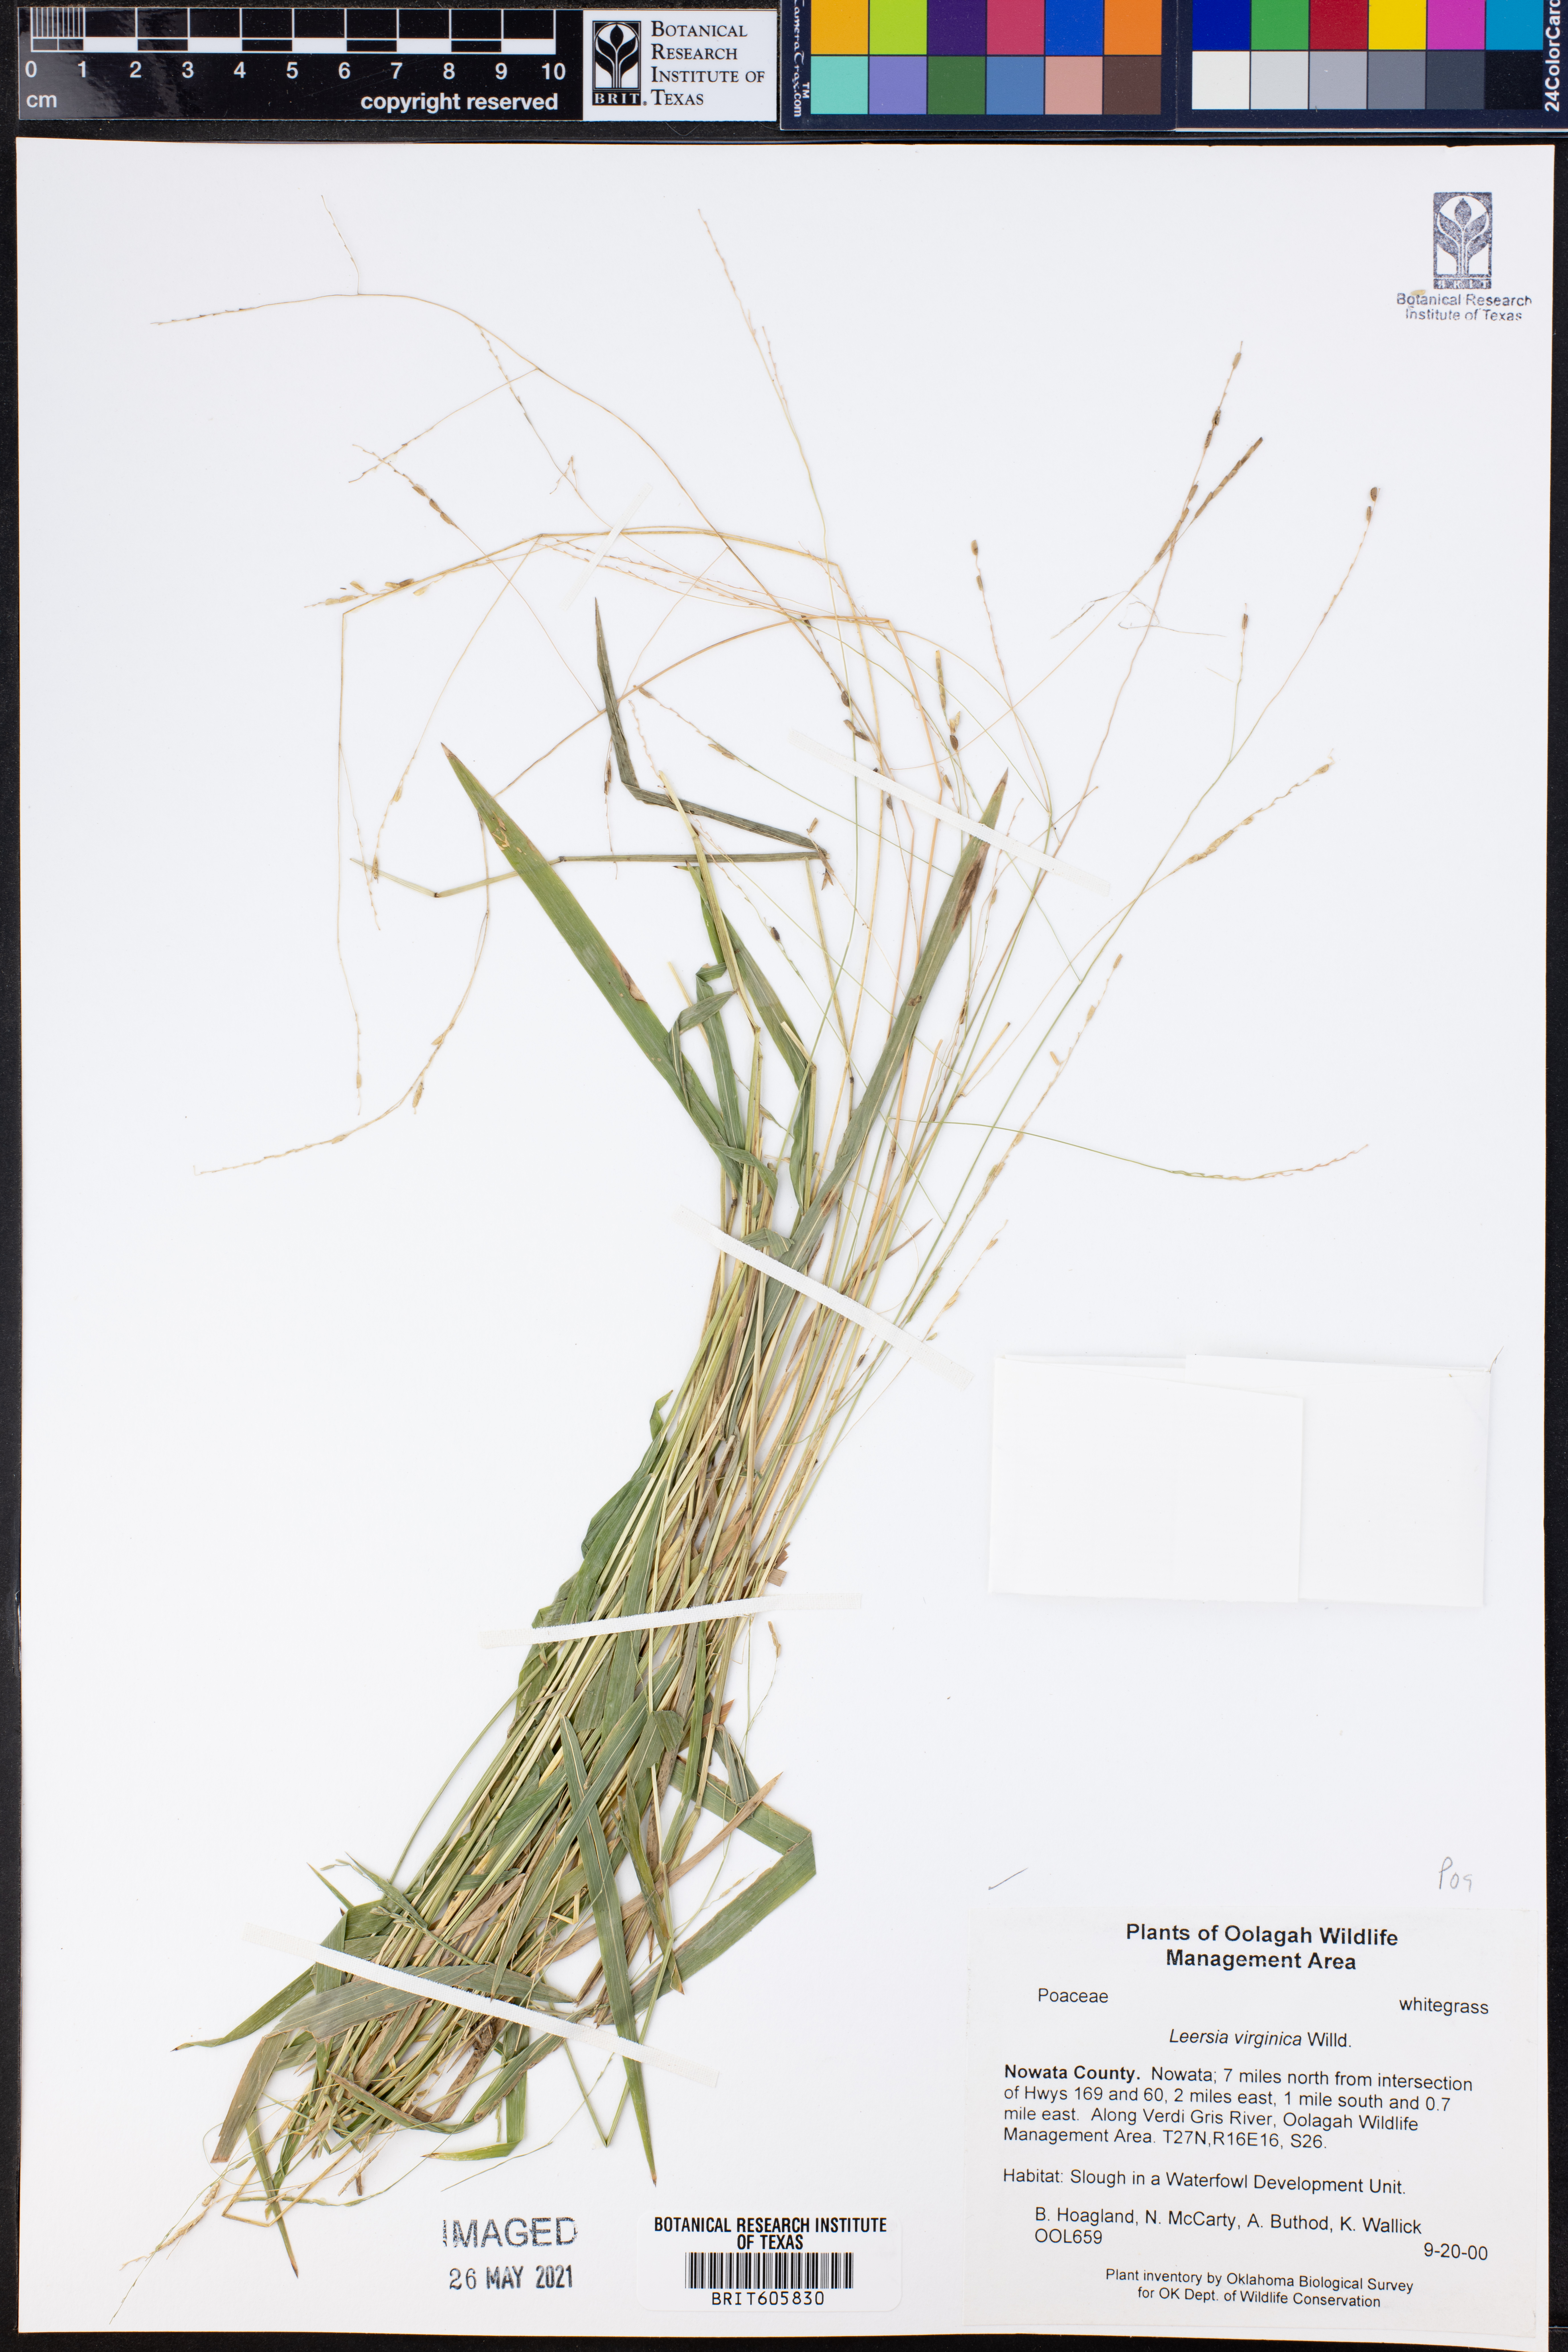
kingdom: Plantae
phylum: Tracheophyta
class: Liliopsida
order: Poales
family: Poaceae
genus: Leersia
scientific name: Leersia virginica
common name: White cutgrass
